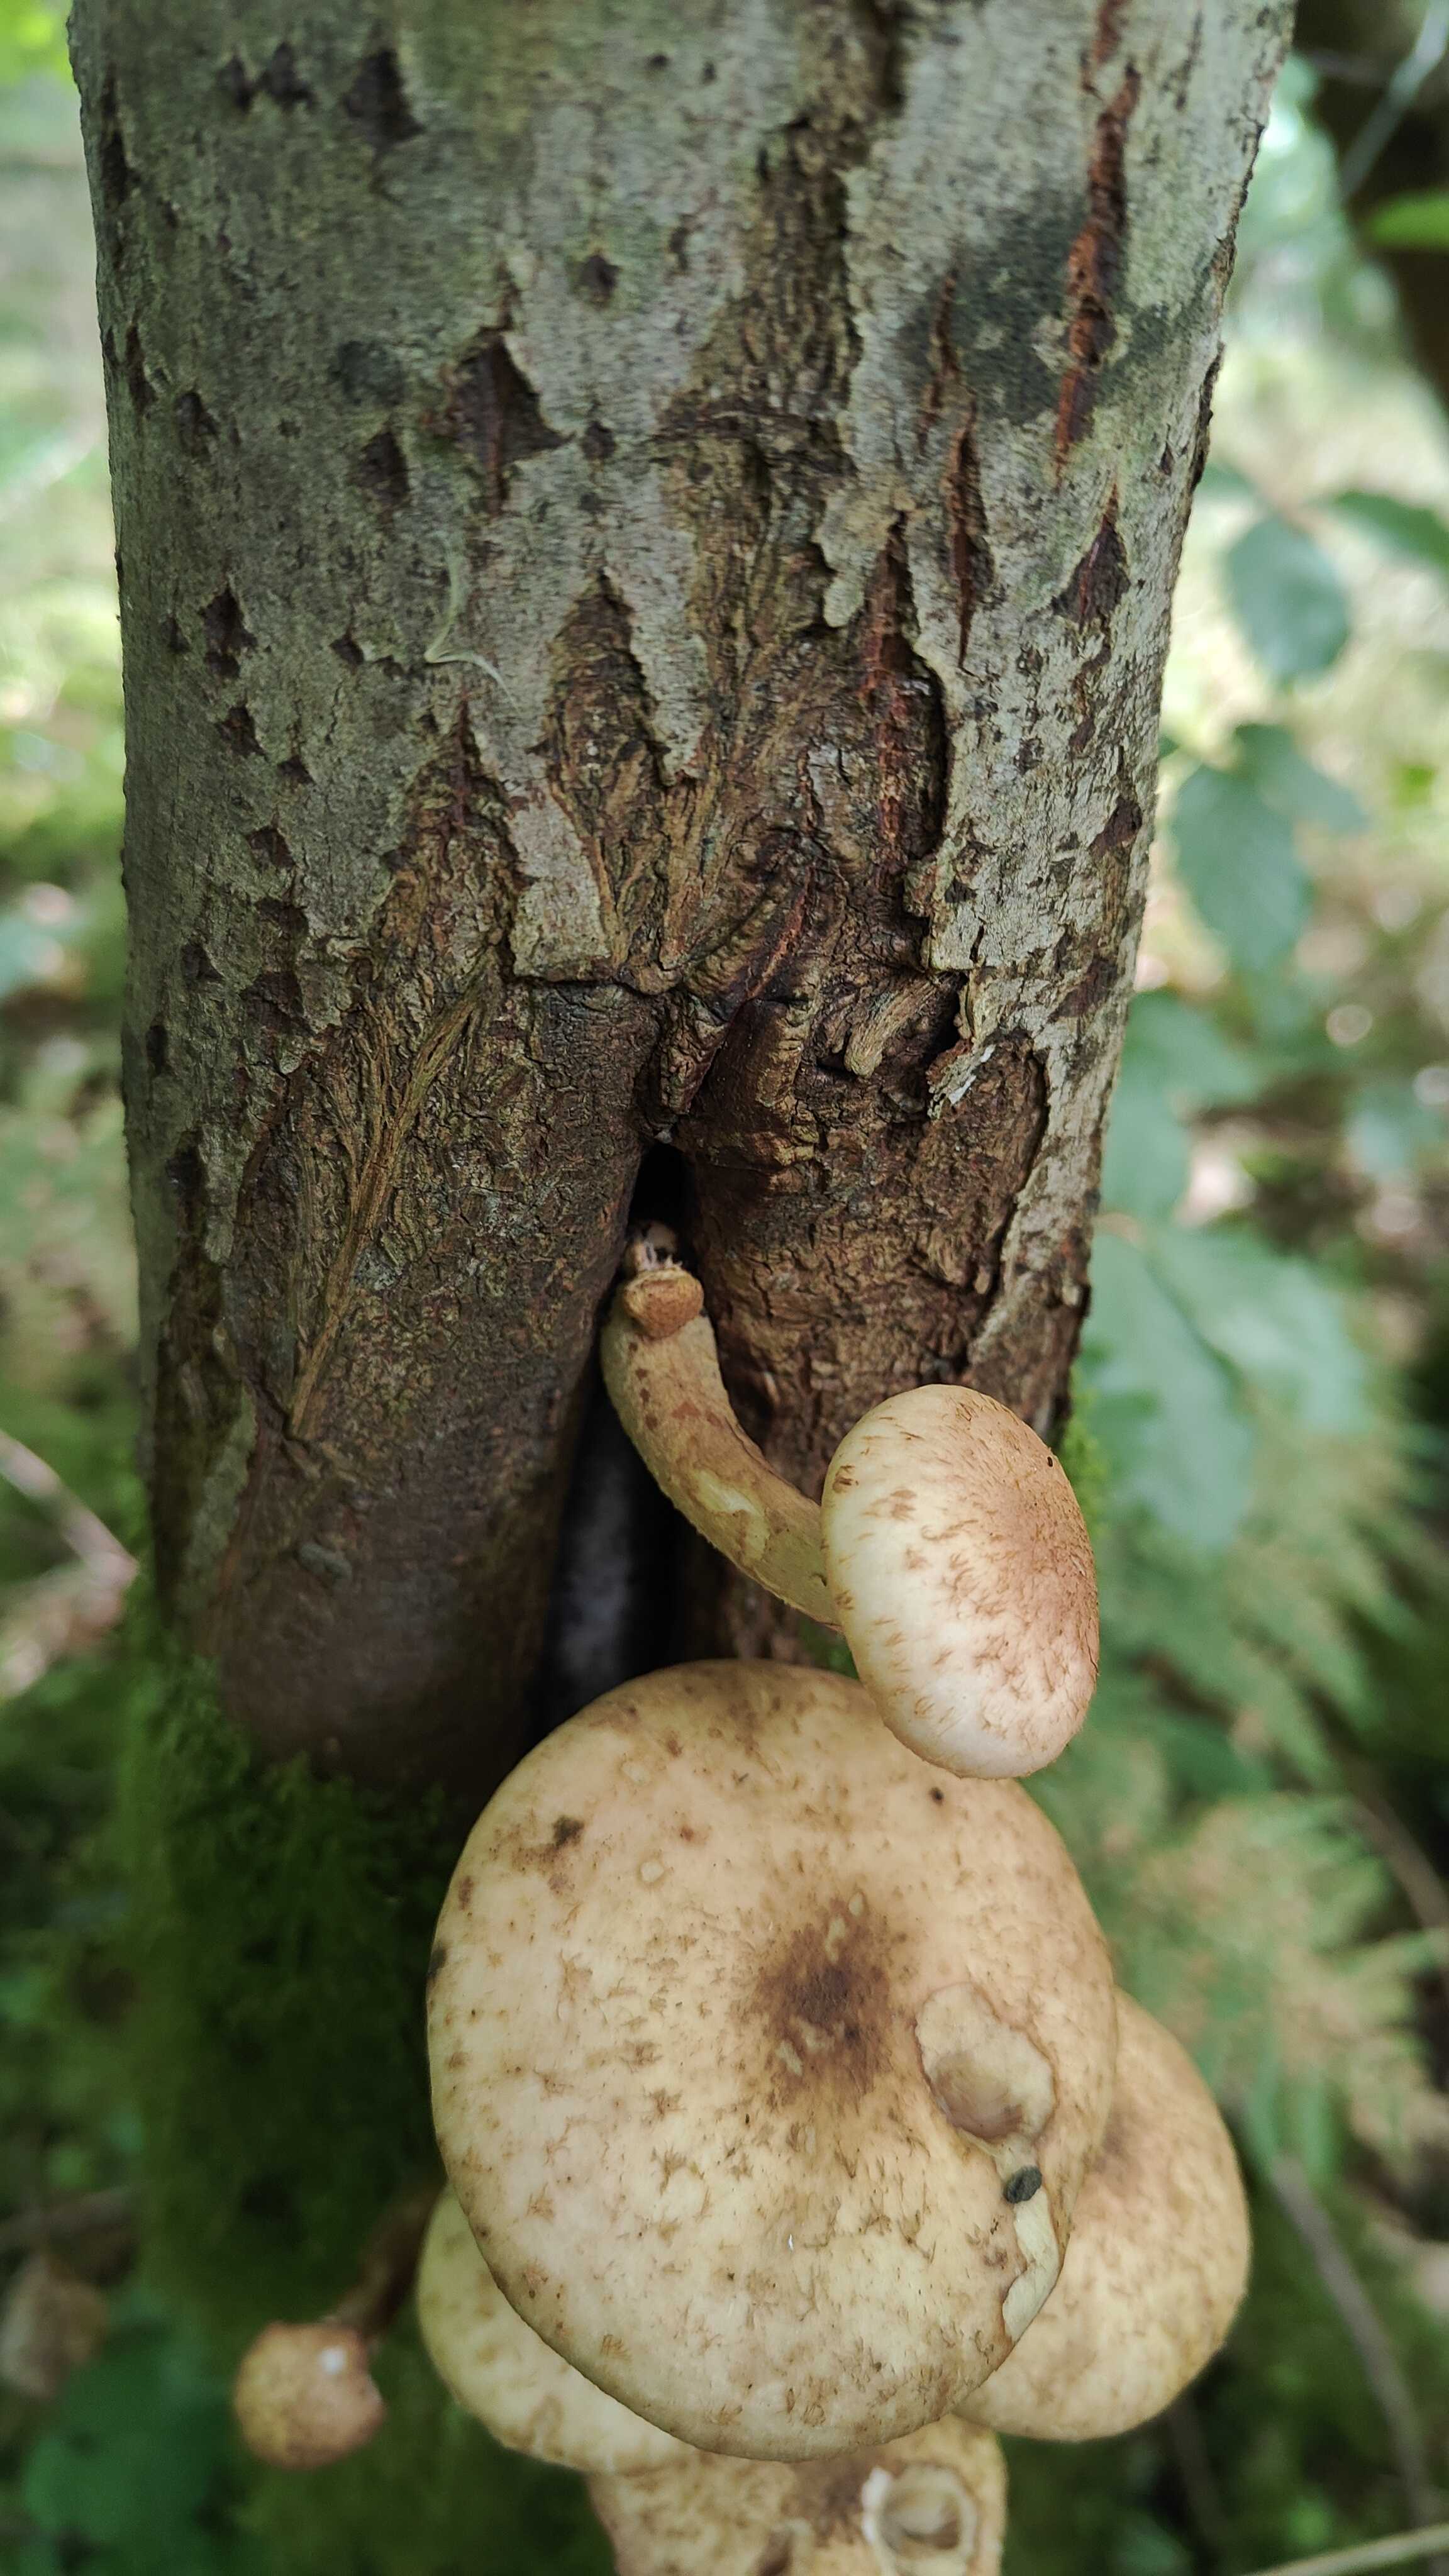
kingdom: Fungi
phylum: Basidiomycota
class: Agaricomycetes
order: Agaricales
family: Strophariaceae
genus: Pholiota
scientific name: Pholiota heteroclita
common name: duftende kæmpeskælhat
